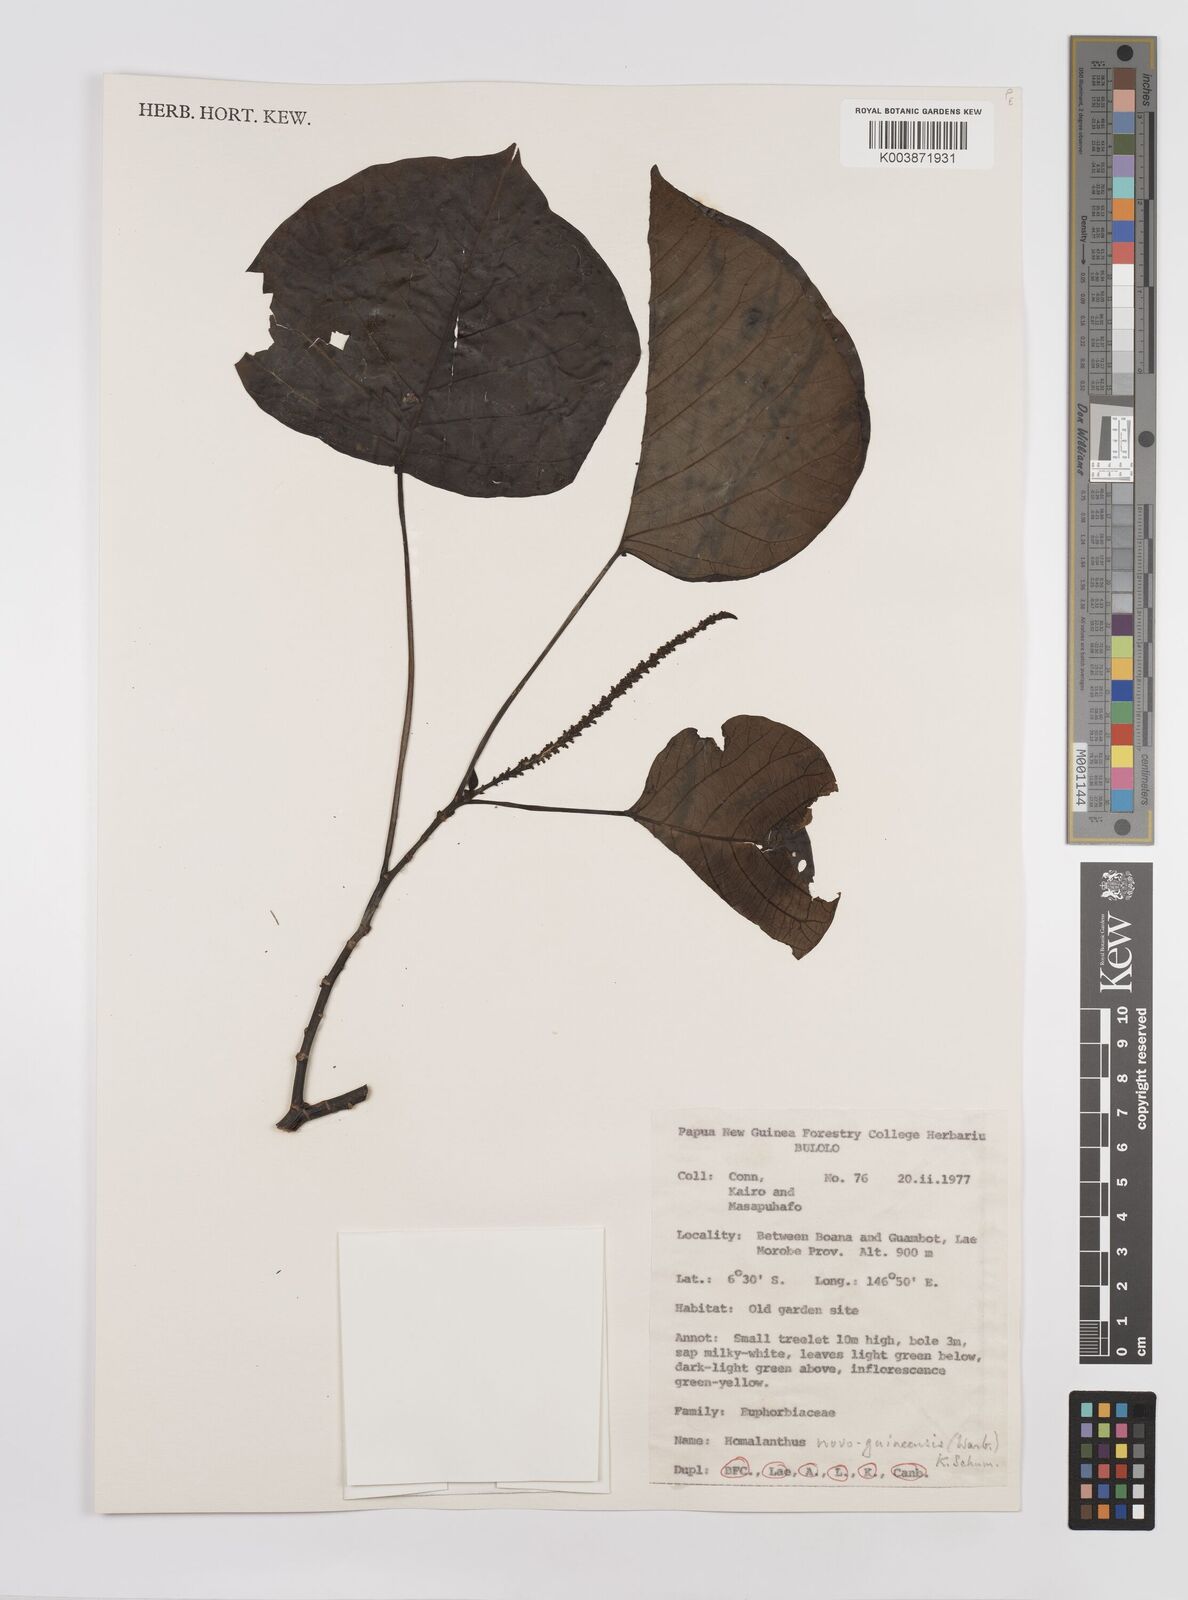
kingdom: Plantae
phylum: Tracheophyta
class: Magnoliopsida
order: Malpighiales
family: Euphorbiaceae
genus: Homalanthus
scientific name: Homalanthus novoguineensis
